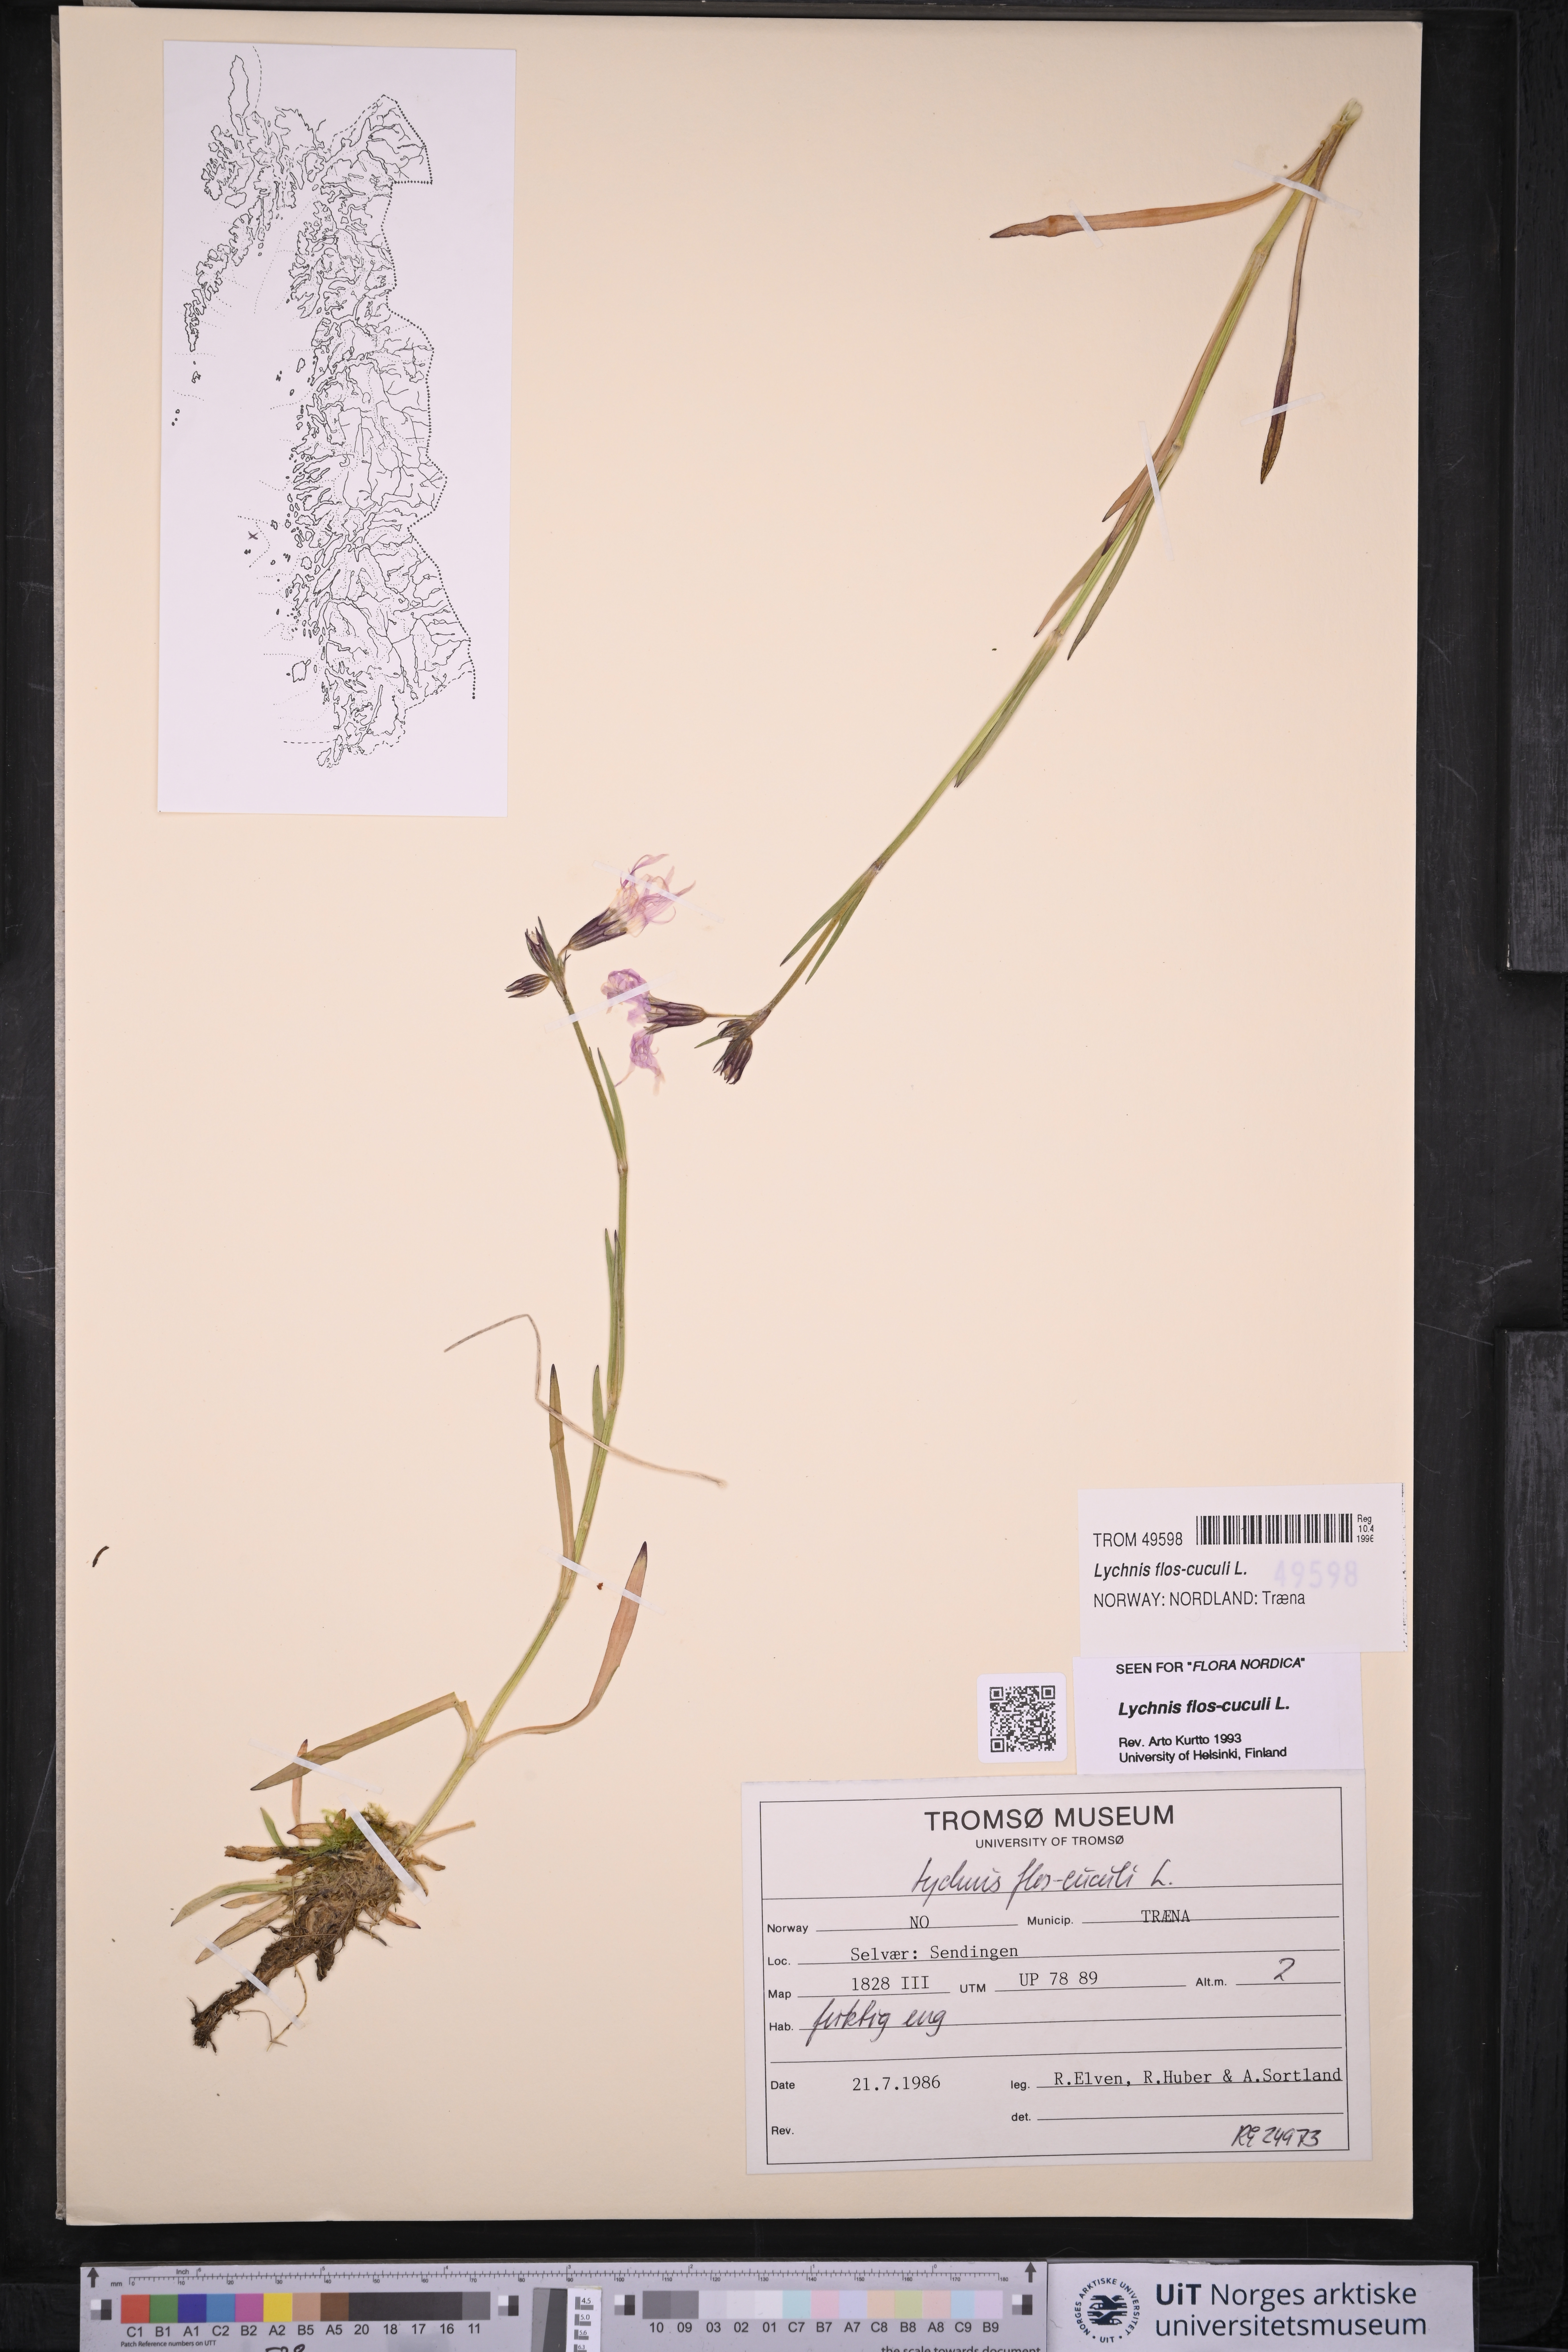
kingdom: Plantae
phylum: Tracheophyta
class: Magnoliopsida
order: Caryophyllales
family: Caryophyllaceae
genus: Silene
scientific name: Silene flos-cuculi
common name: Ragged-robin
